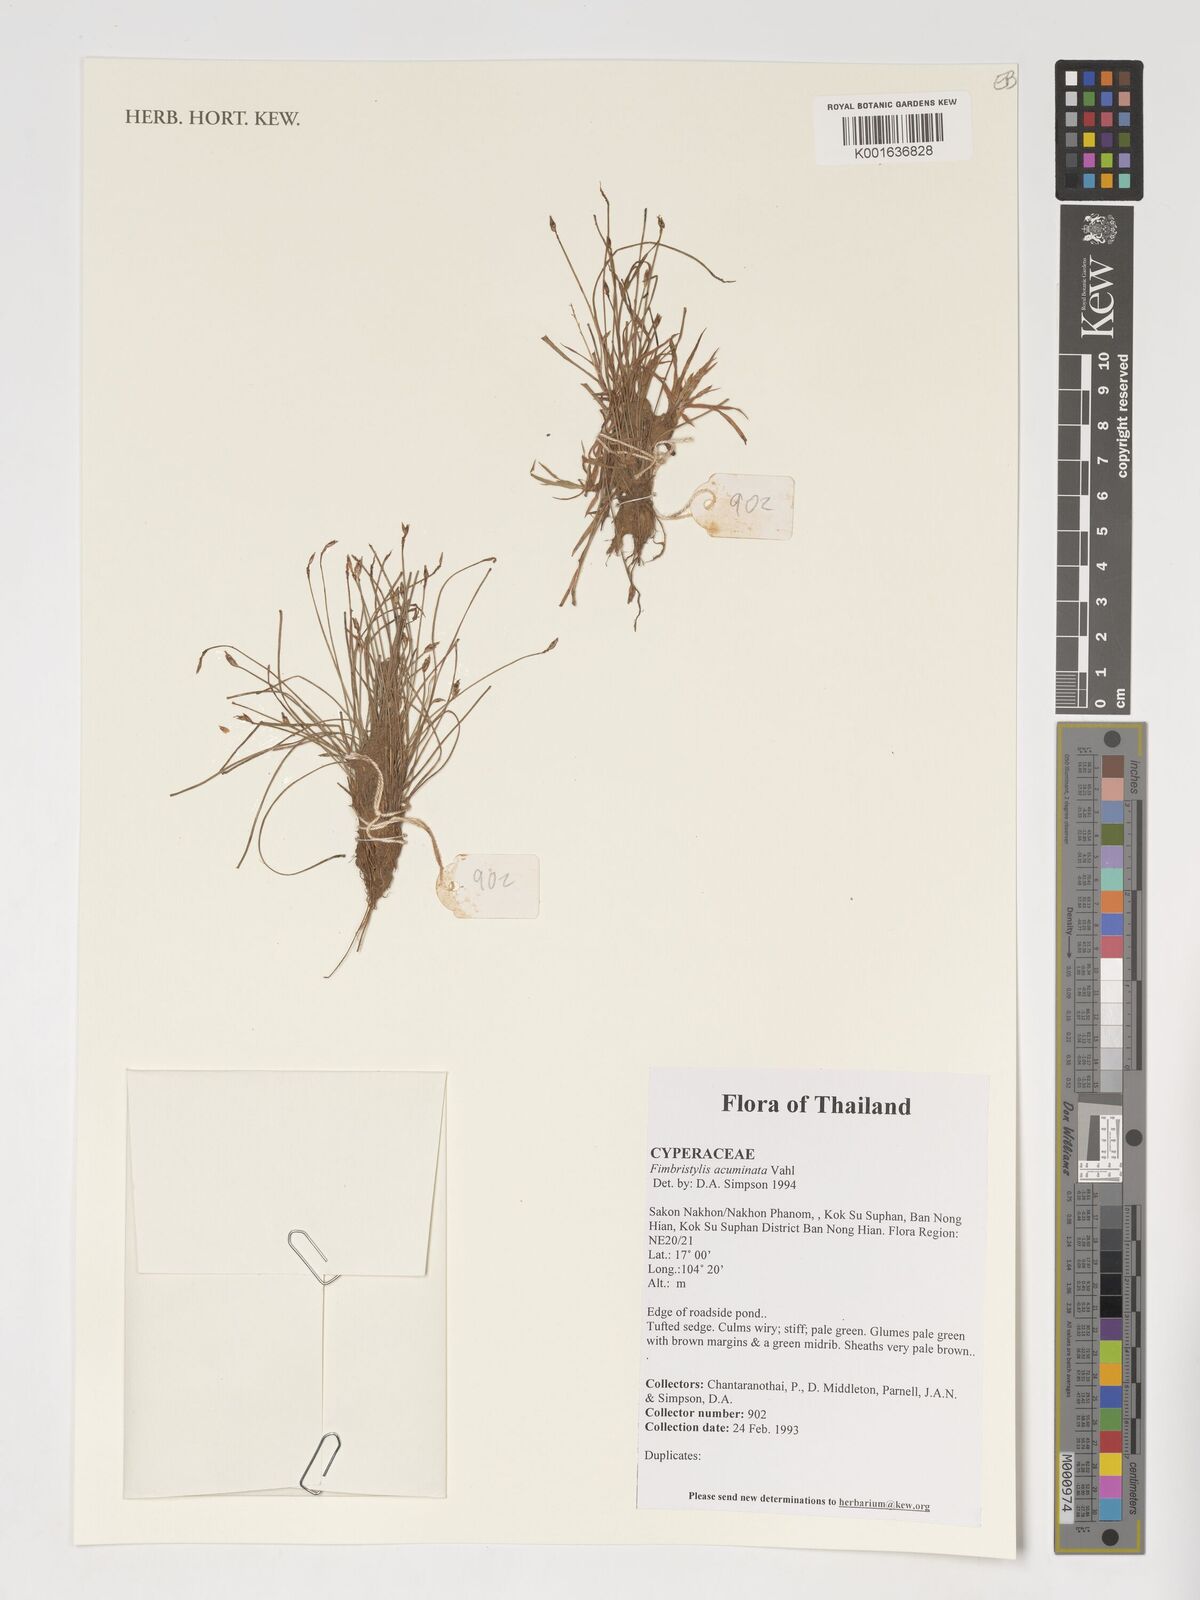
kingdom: Plantae
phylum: Tracheophyta
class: Liliopsida
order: Poales
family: Cyperaceae
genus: Fimbristylis
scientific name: Fimbristylis acuminata
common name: Pointed fimbristylis
